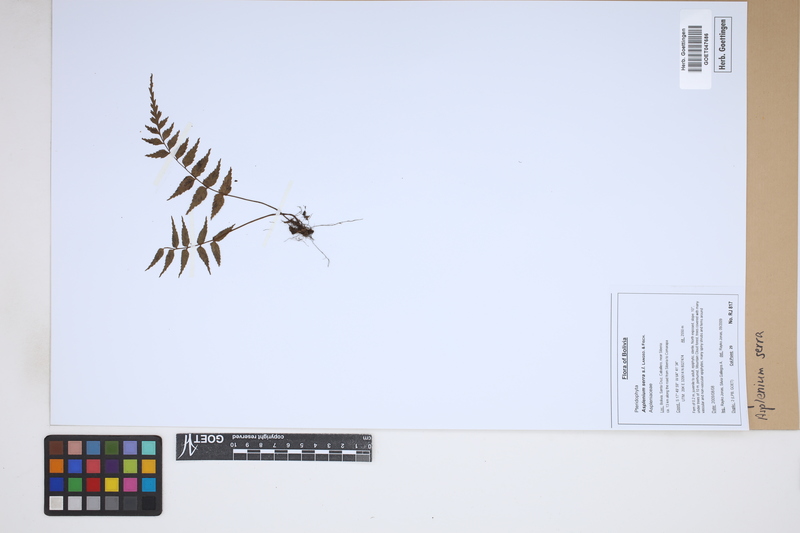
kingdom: Plantae
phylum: Tracheophyta
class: Polypodiopsida
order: Polypodiales
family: Aspleniaceae
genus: Asplenium
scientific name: Asplenium serra
